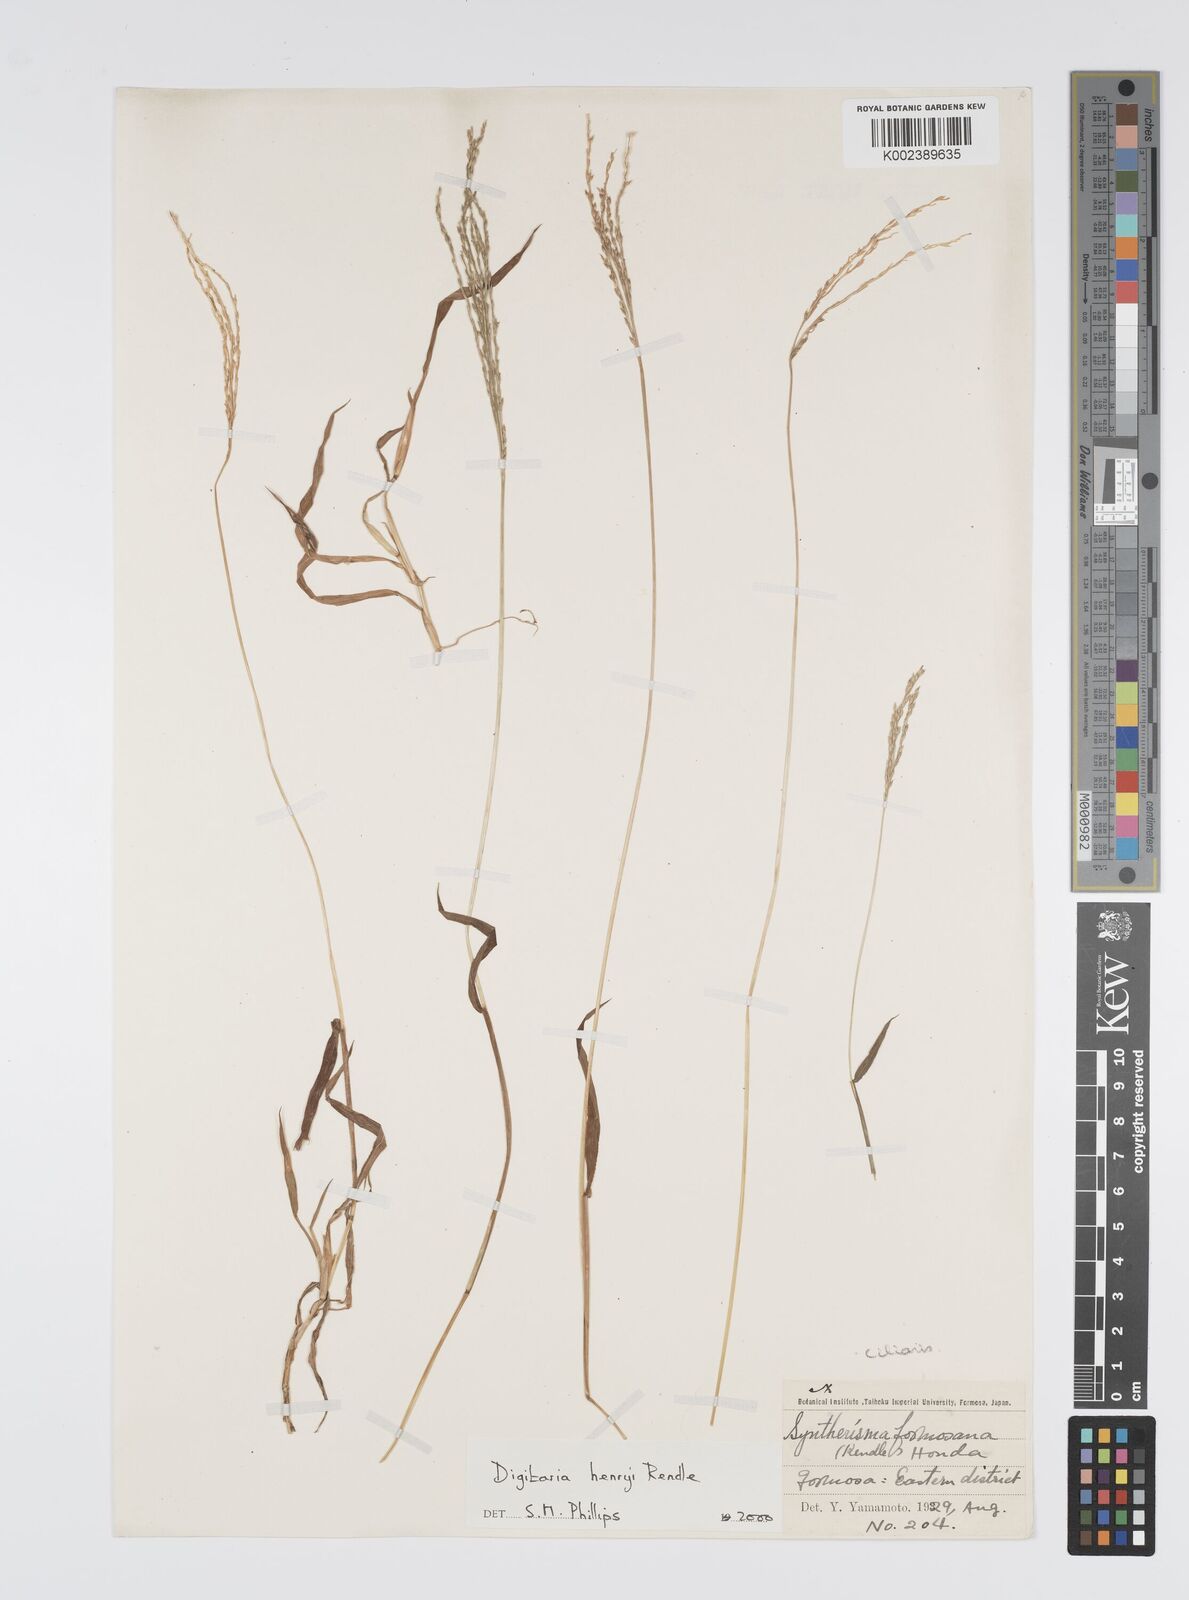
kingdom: Plantae
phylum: Tracheophyta
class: Liliopsida
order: Poales
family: Poaceae
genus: Digitaria
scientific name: Digitaria ciliaris
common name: Tropical finger-grass
